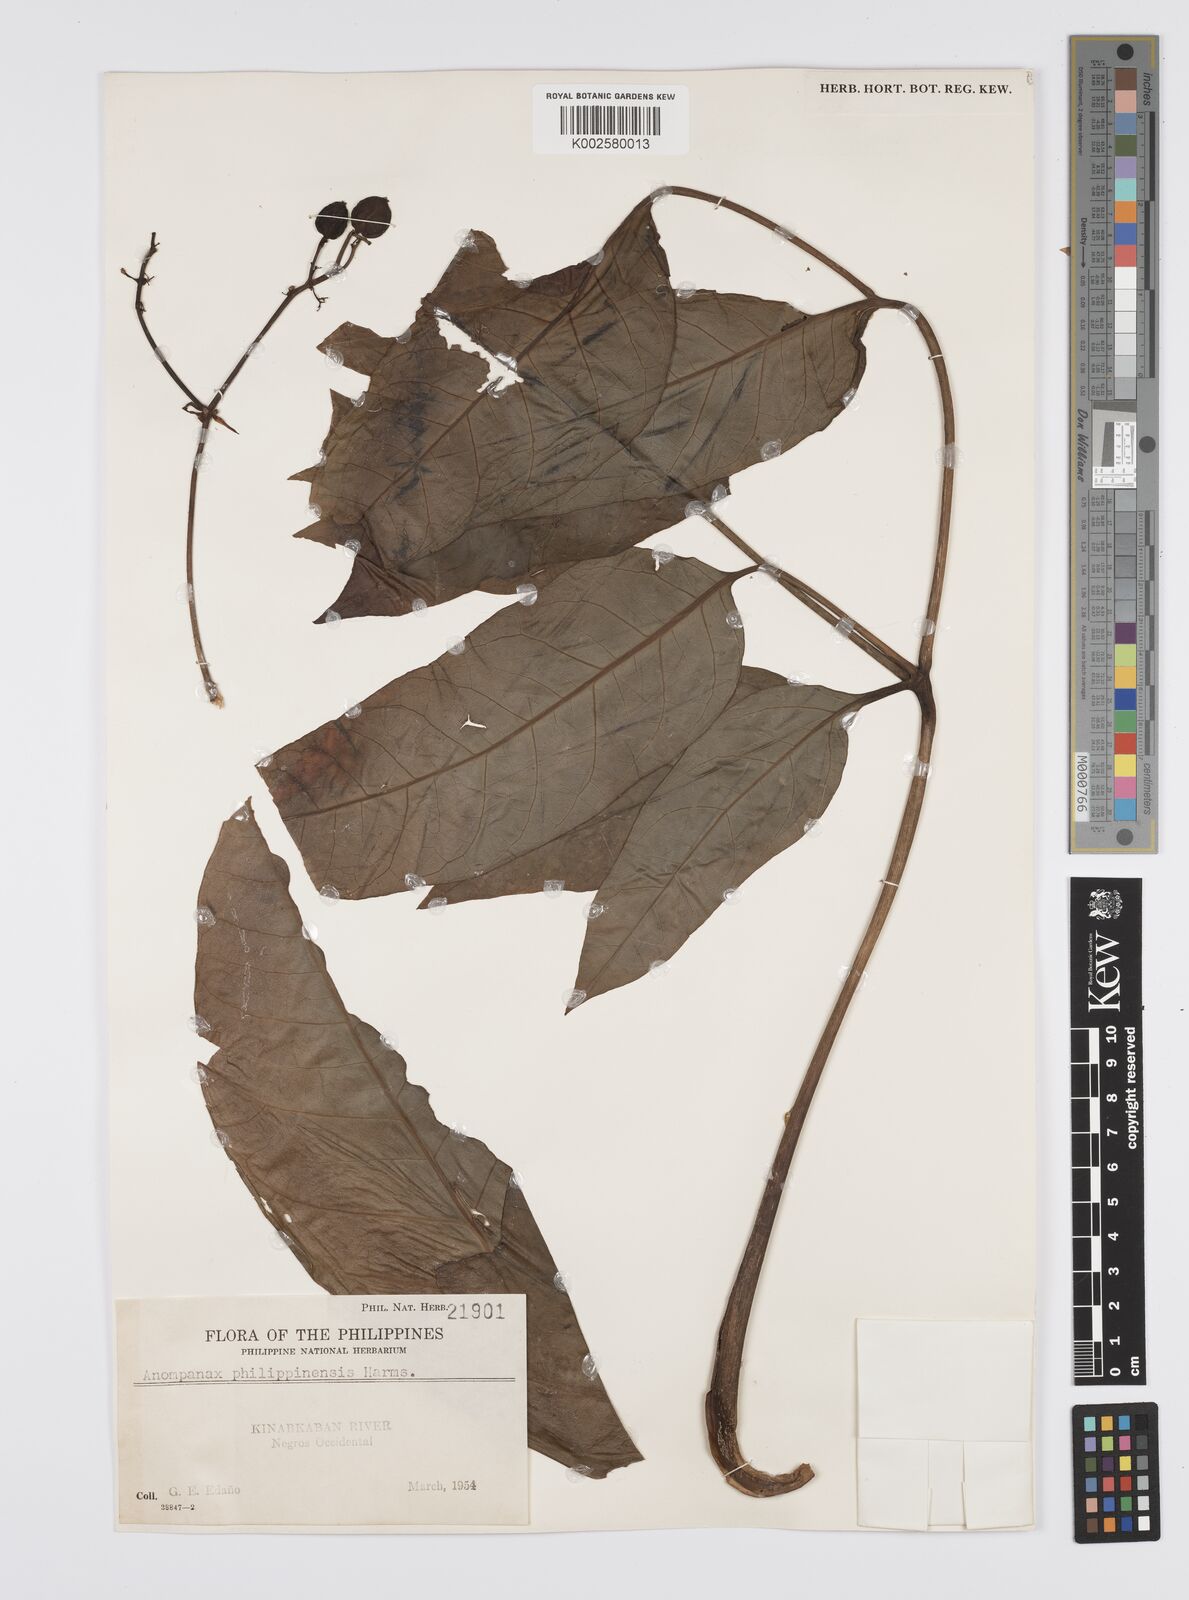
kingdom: Plantae
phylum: Tracheophyta
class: Magnoliopsida
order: Apiales
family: Apiaceae
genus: Mackinlaya
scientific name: Mackinlaya celebica
